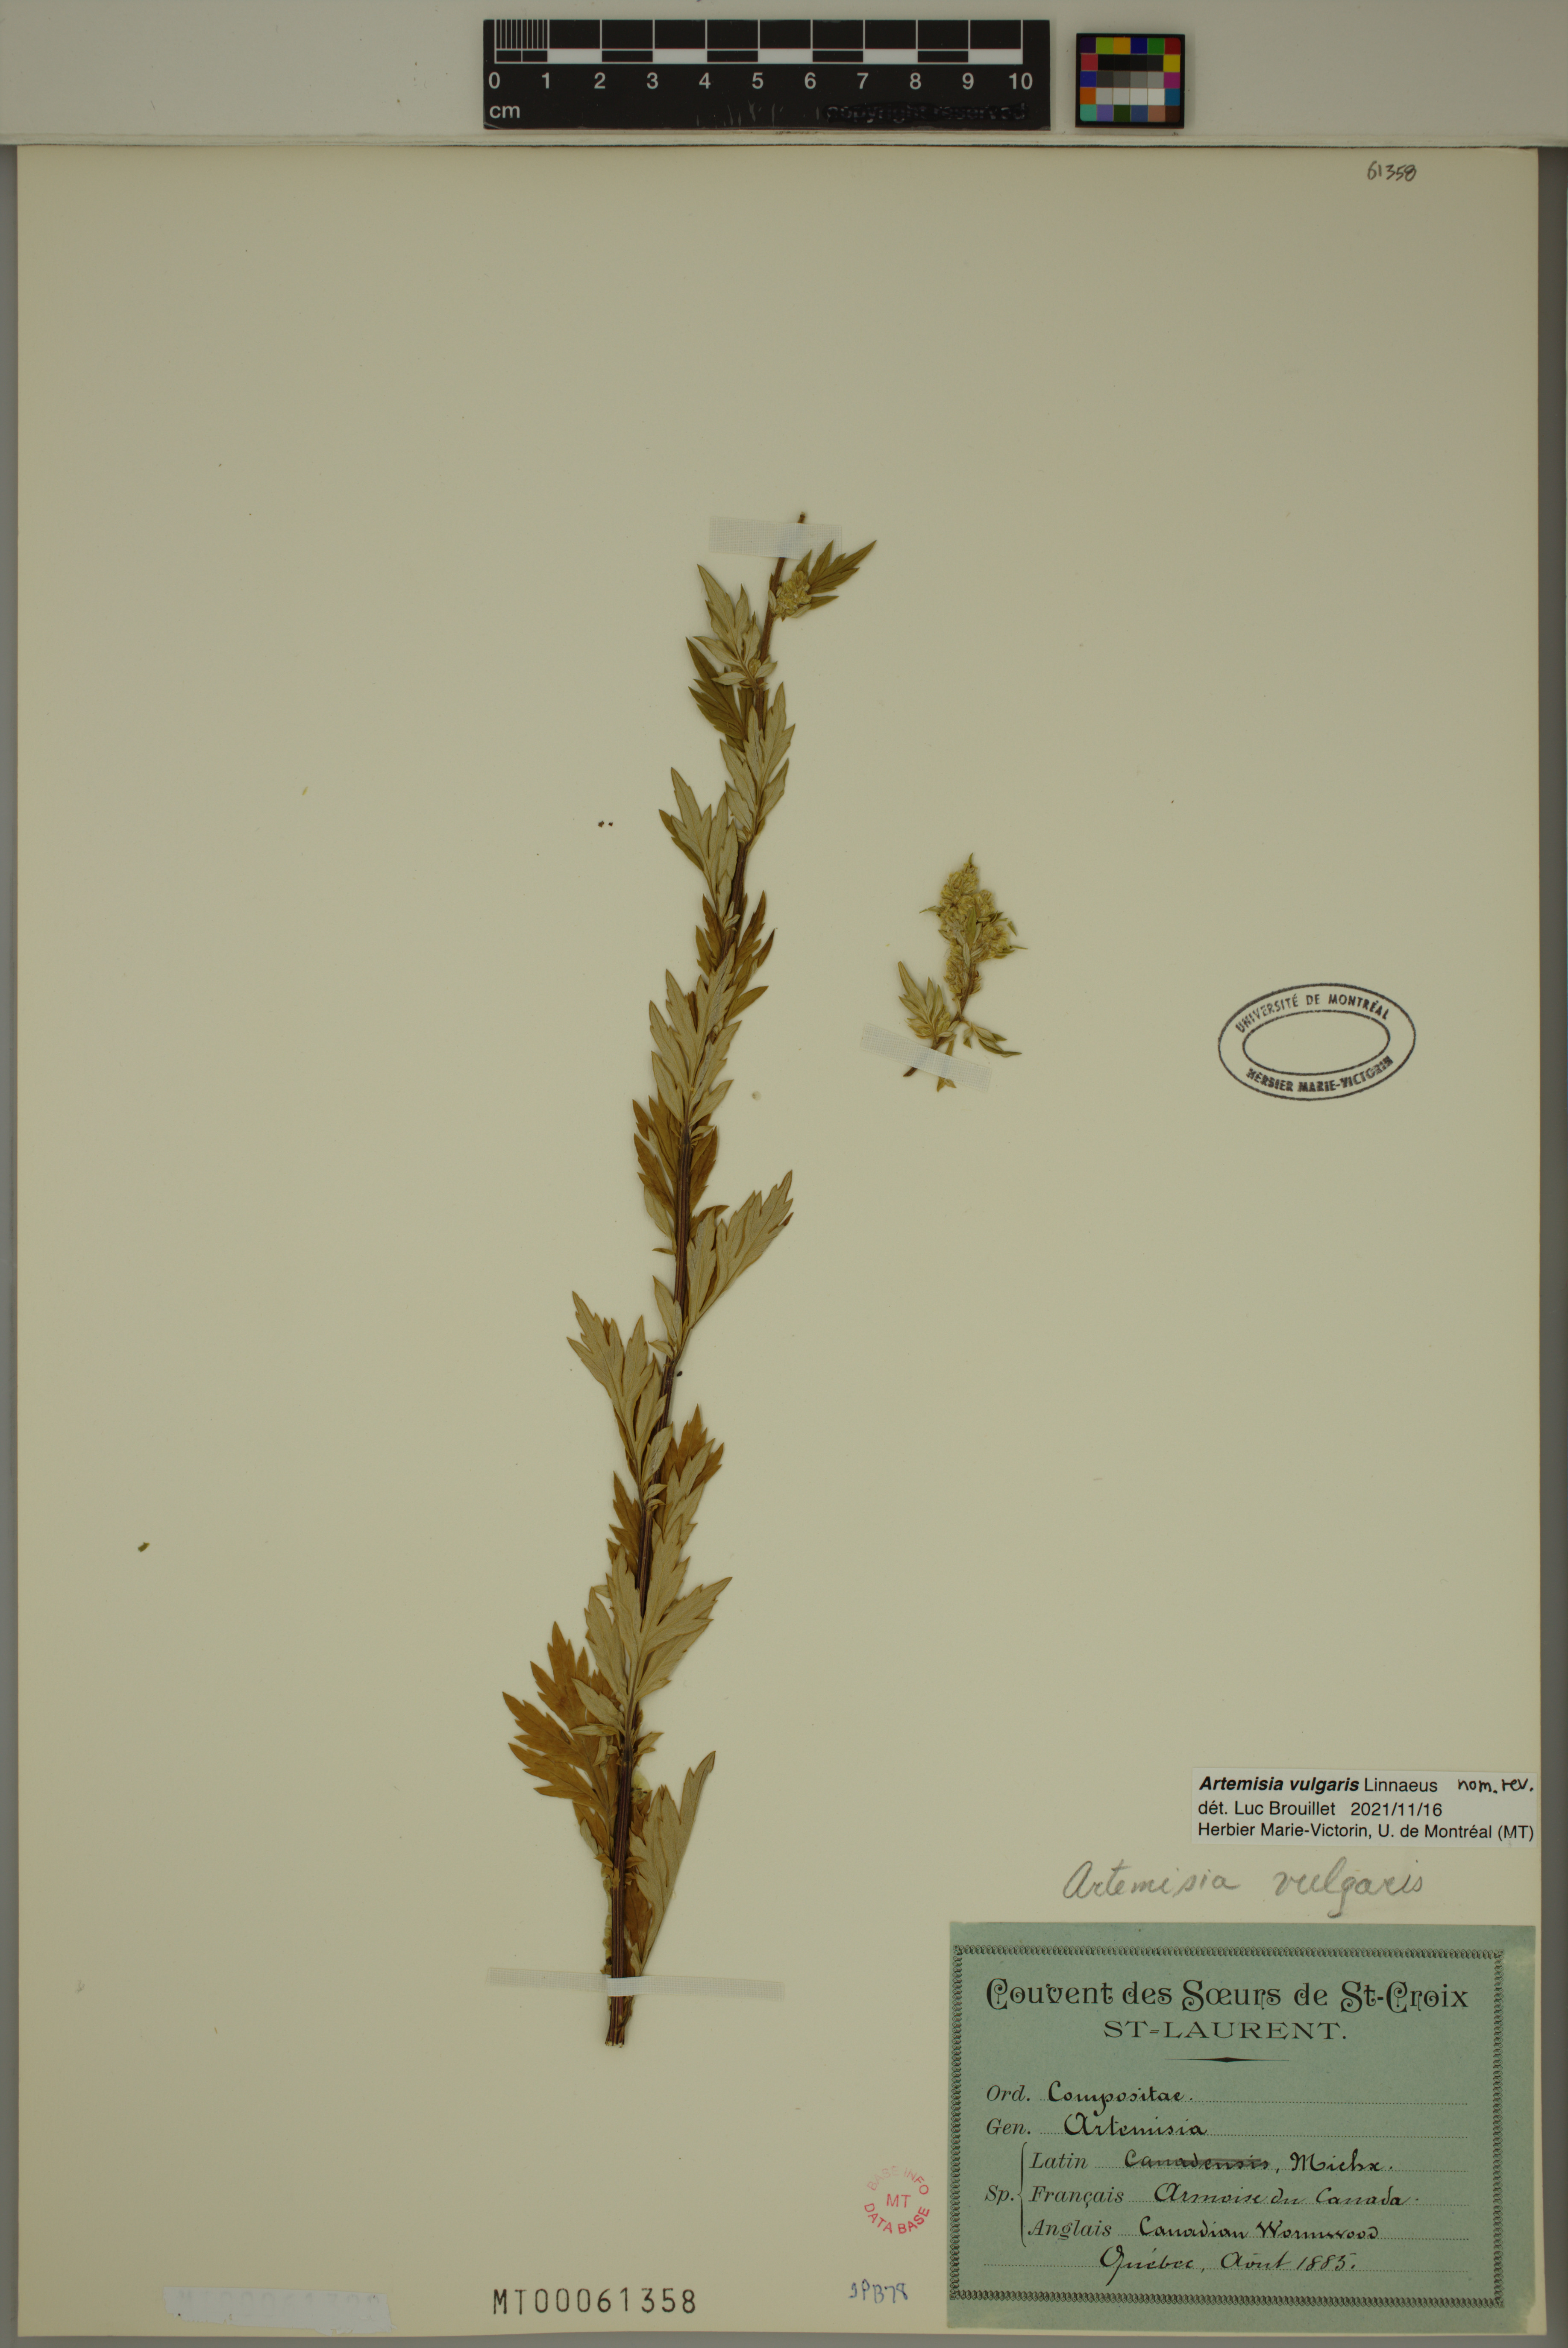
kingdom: Plantae
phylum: Tracheophyta
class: Magnoliopsida
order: Asterales
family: Asteraceae
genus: Artemisia
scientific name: Artemisia vulgaris
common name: Mugwort
